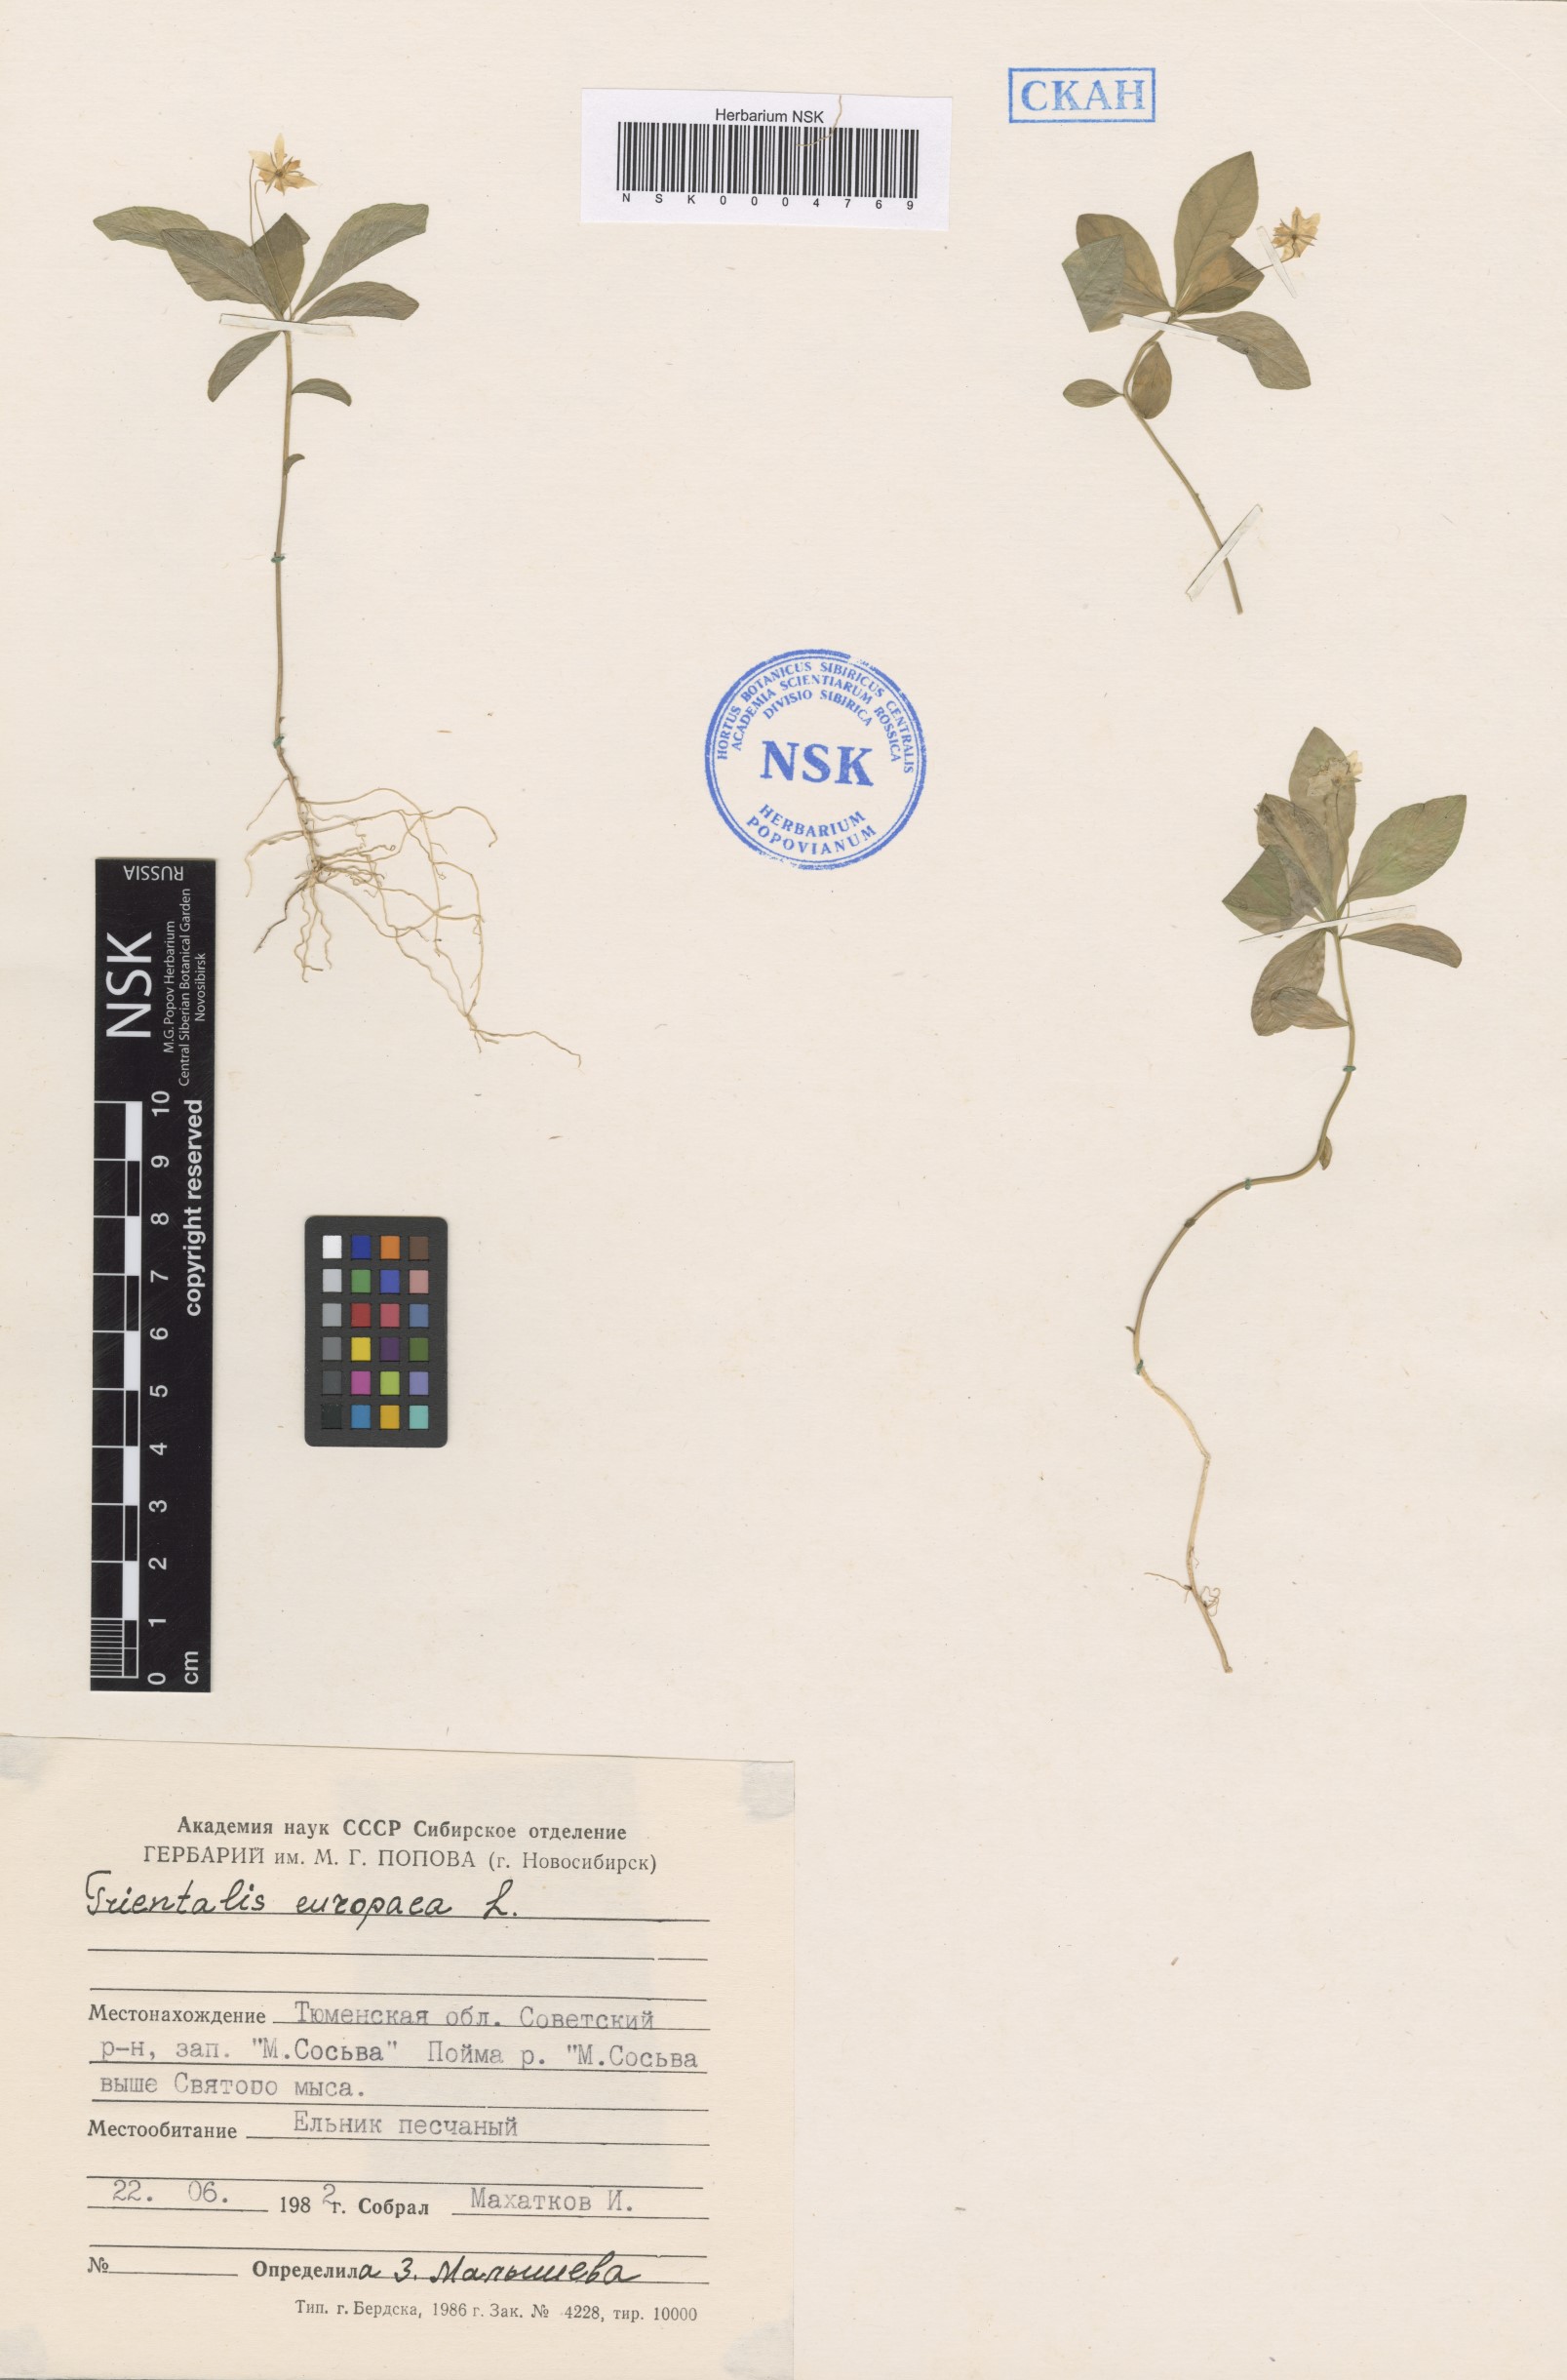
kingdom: Plantae
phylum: Tracheophyta
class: Magnoliopsida
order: Ericales
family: Primulaceae
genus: Lysimachia
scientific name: Lysimachia europaea
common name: Arctic starflower
